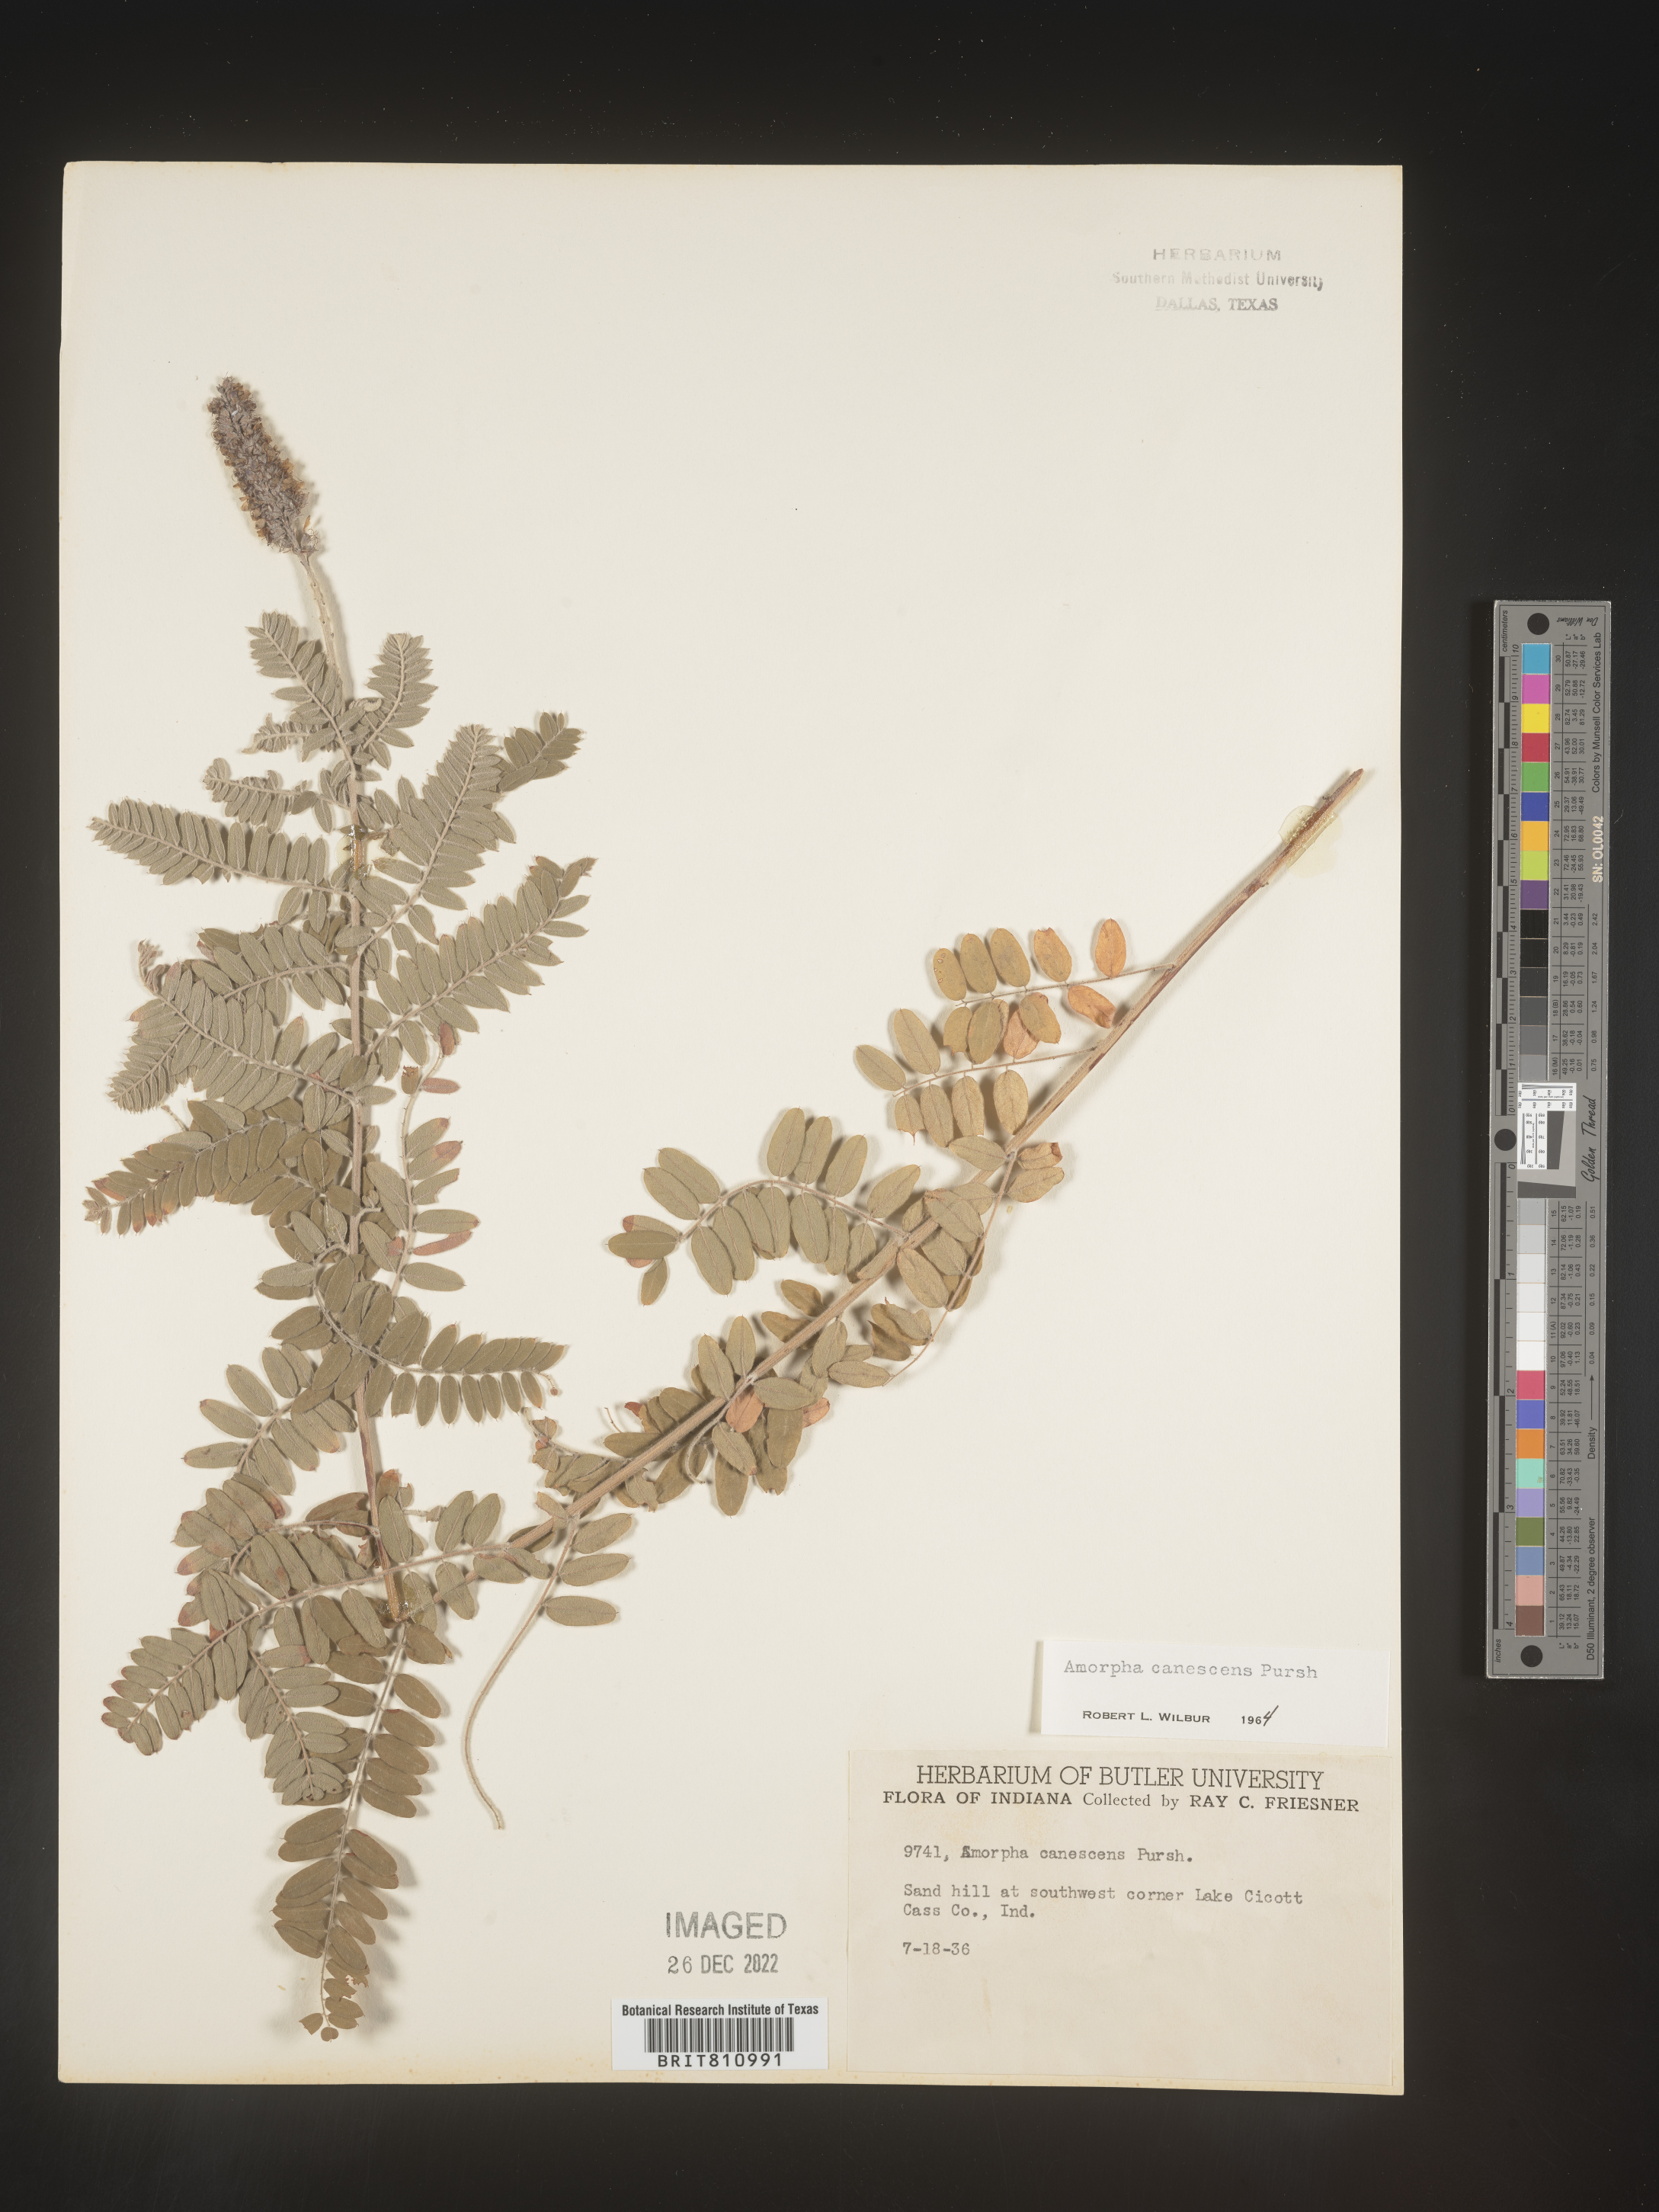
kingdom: Plantae
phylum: Tracheophyta
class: Magnoliopsida
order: Fabales
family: Fabaceae
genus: Amorpha
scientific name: Amorpha canescens
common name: Leadplant
